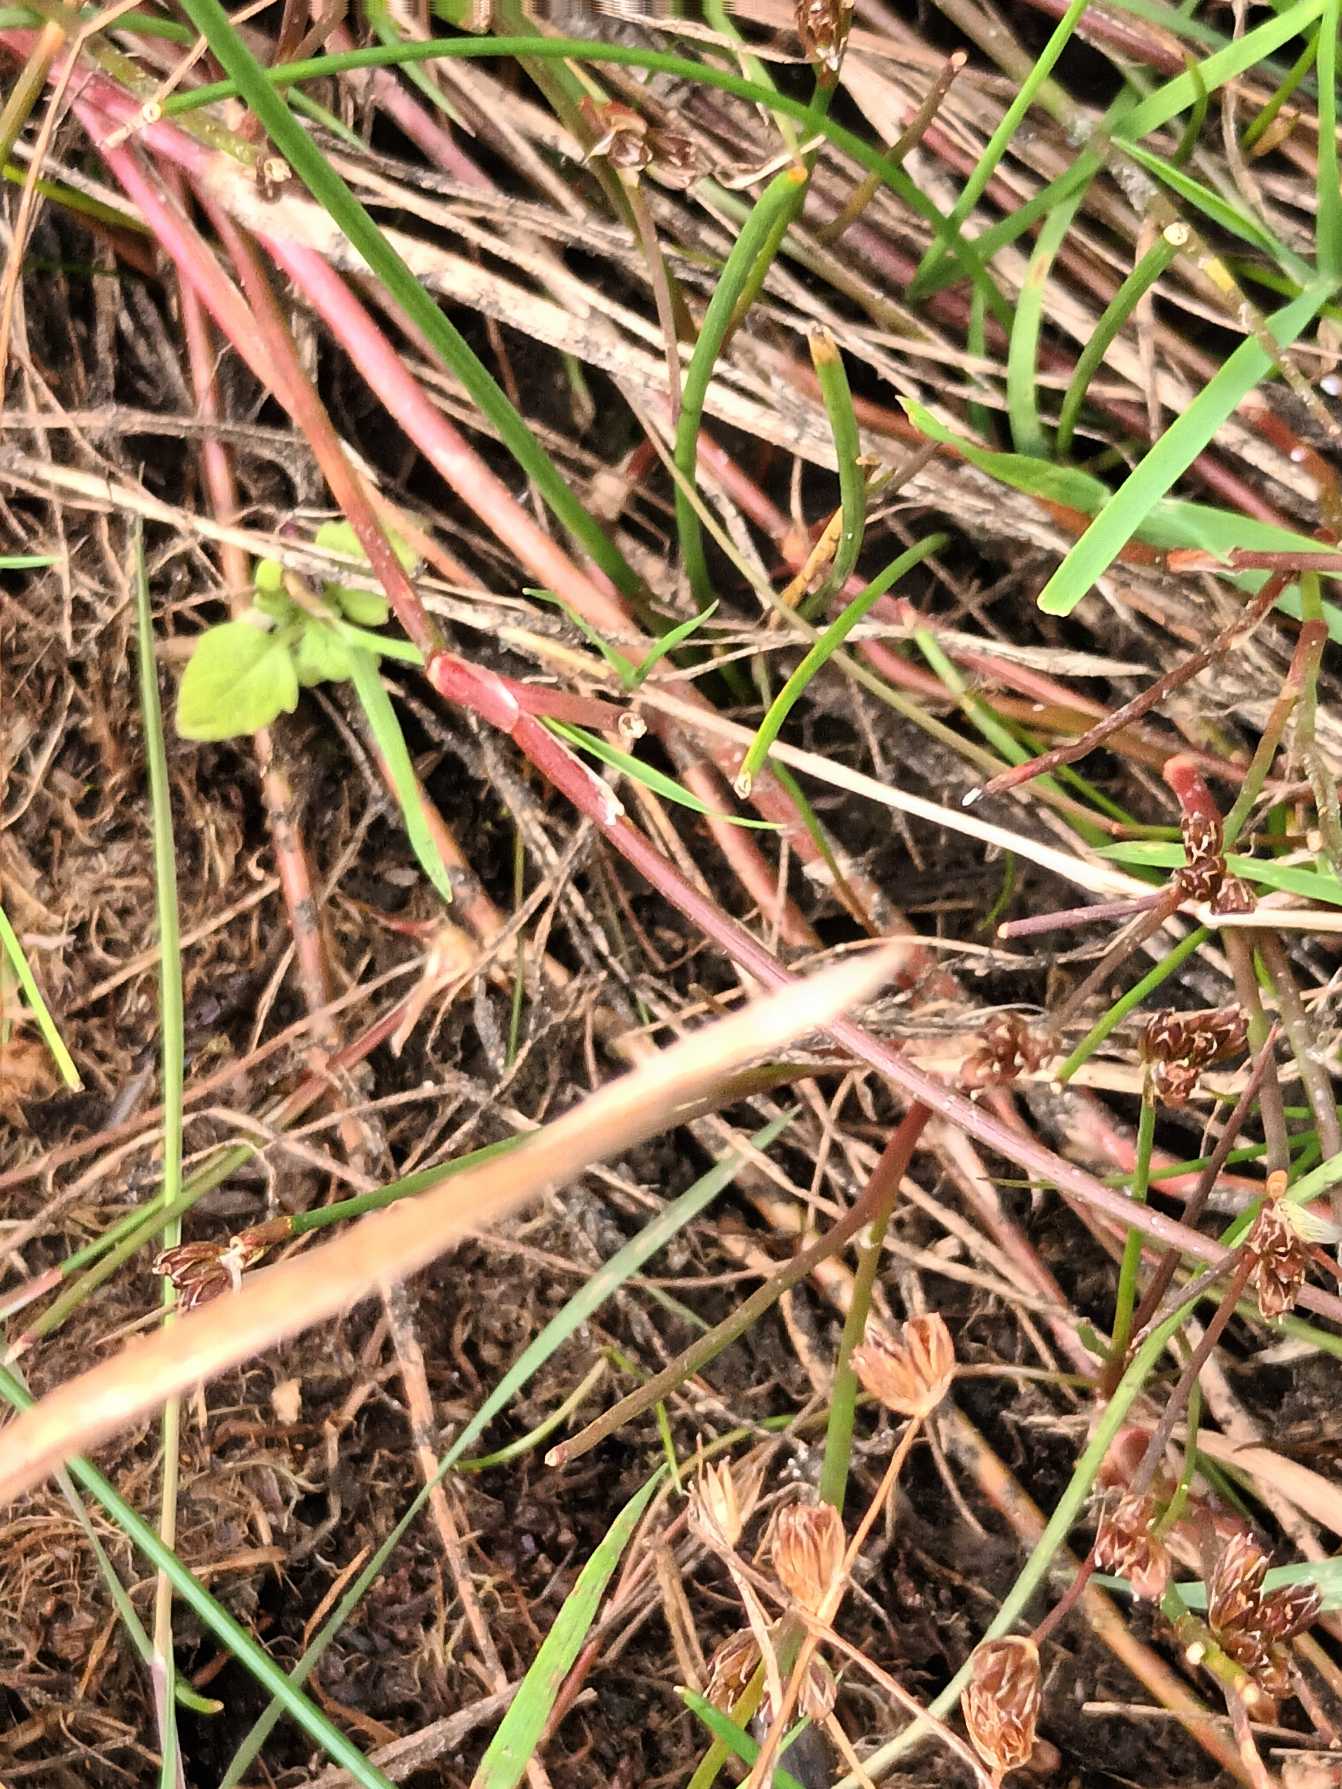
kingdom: Plantae
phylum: Tracheophyta
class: Liliopsida
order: Poales
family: Juncaceae
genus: Juncus
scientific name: Juncus bulbosus
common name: Liden siv
